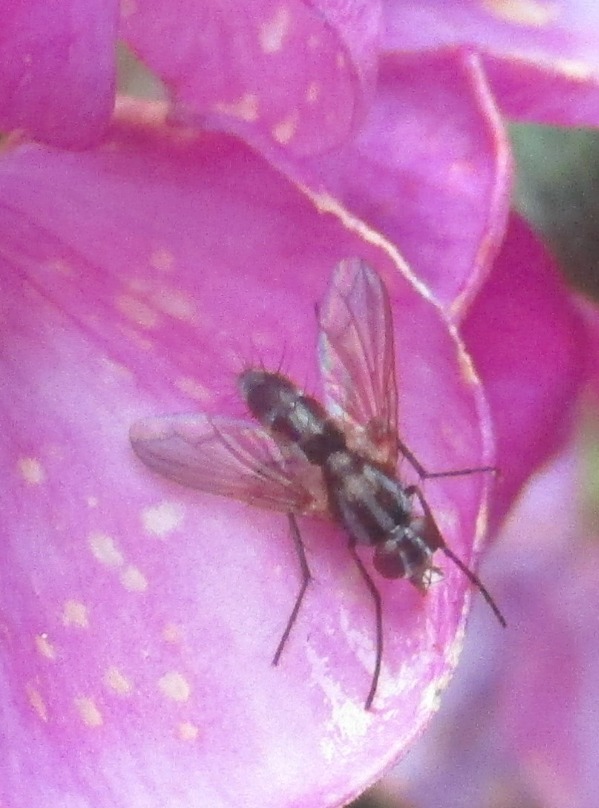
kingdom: Animalia
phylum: Arthropoda
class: Insecta
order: Diptera
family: Tachinidae
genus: Mintho
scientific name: Mintho rufiventris
